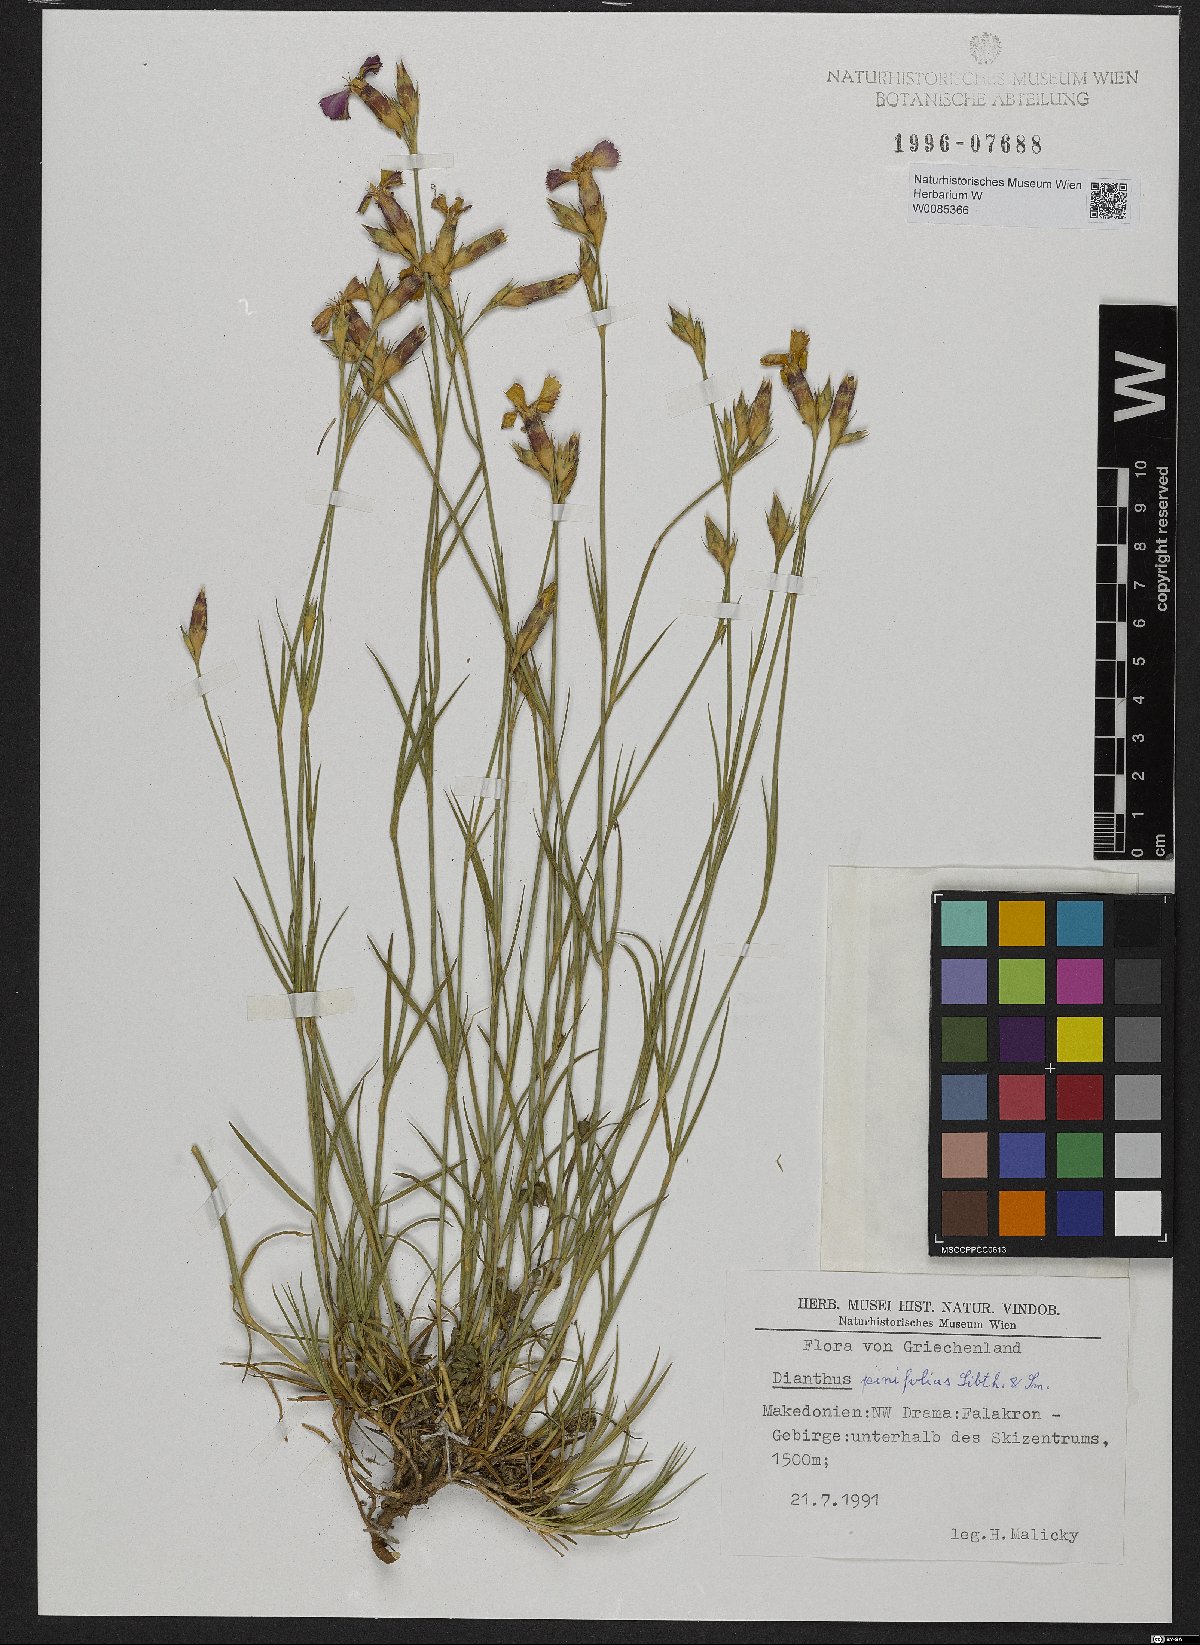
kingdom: Plantae
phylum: Tracheophyta
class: Magnoliopsida
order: Caryophyllales
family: Caryophyllaceae
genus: Dianthus
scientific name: Dianthus pinifolius
